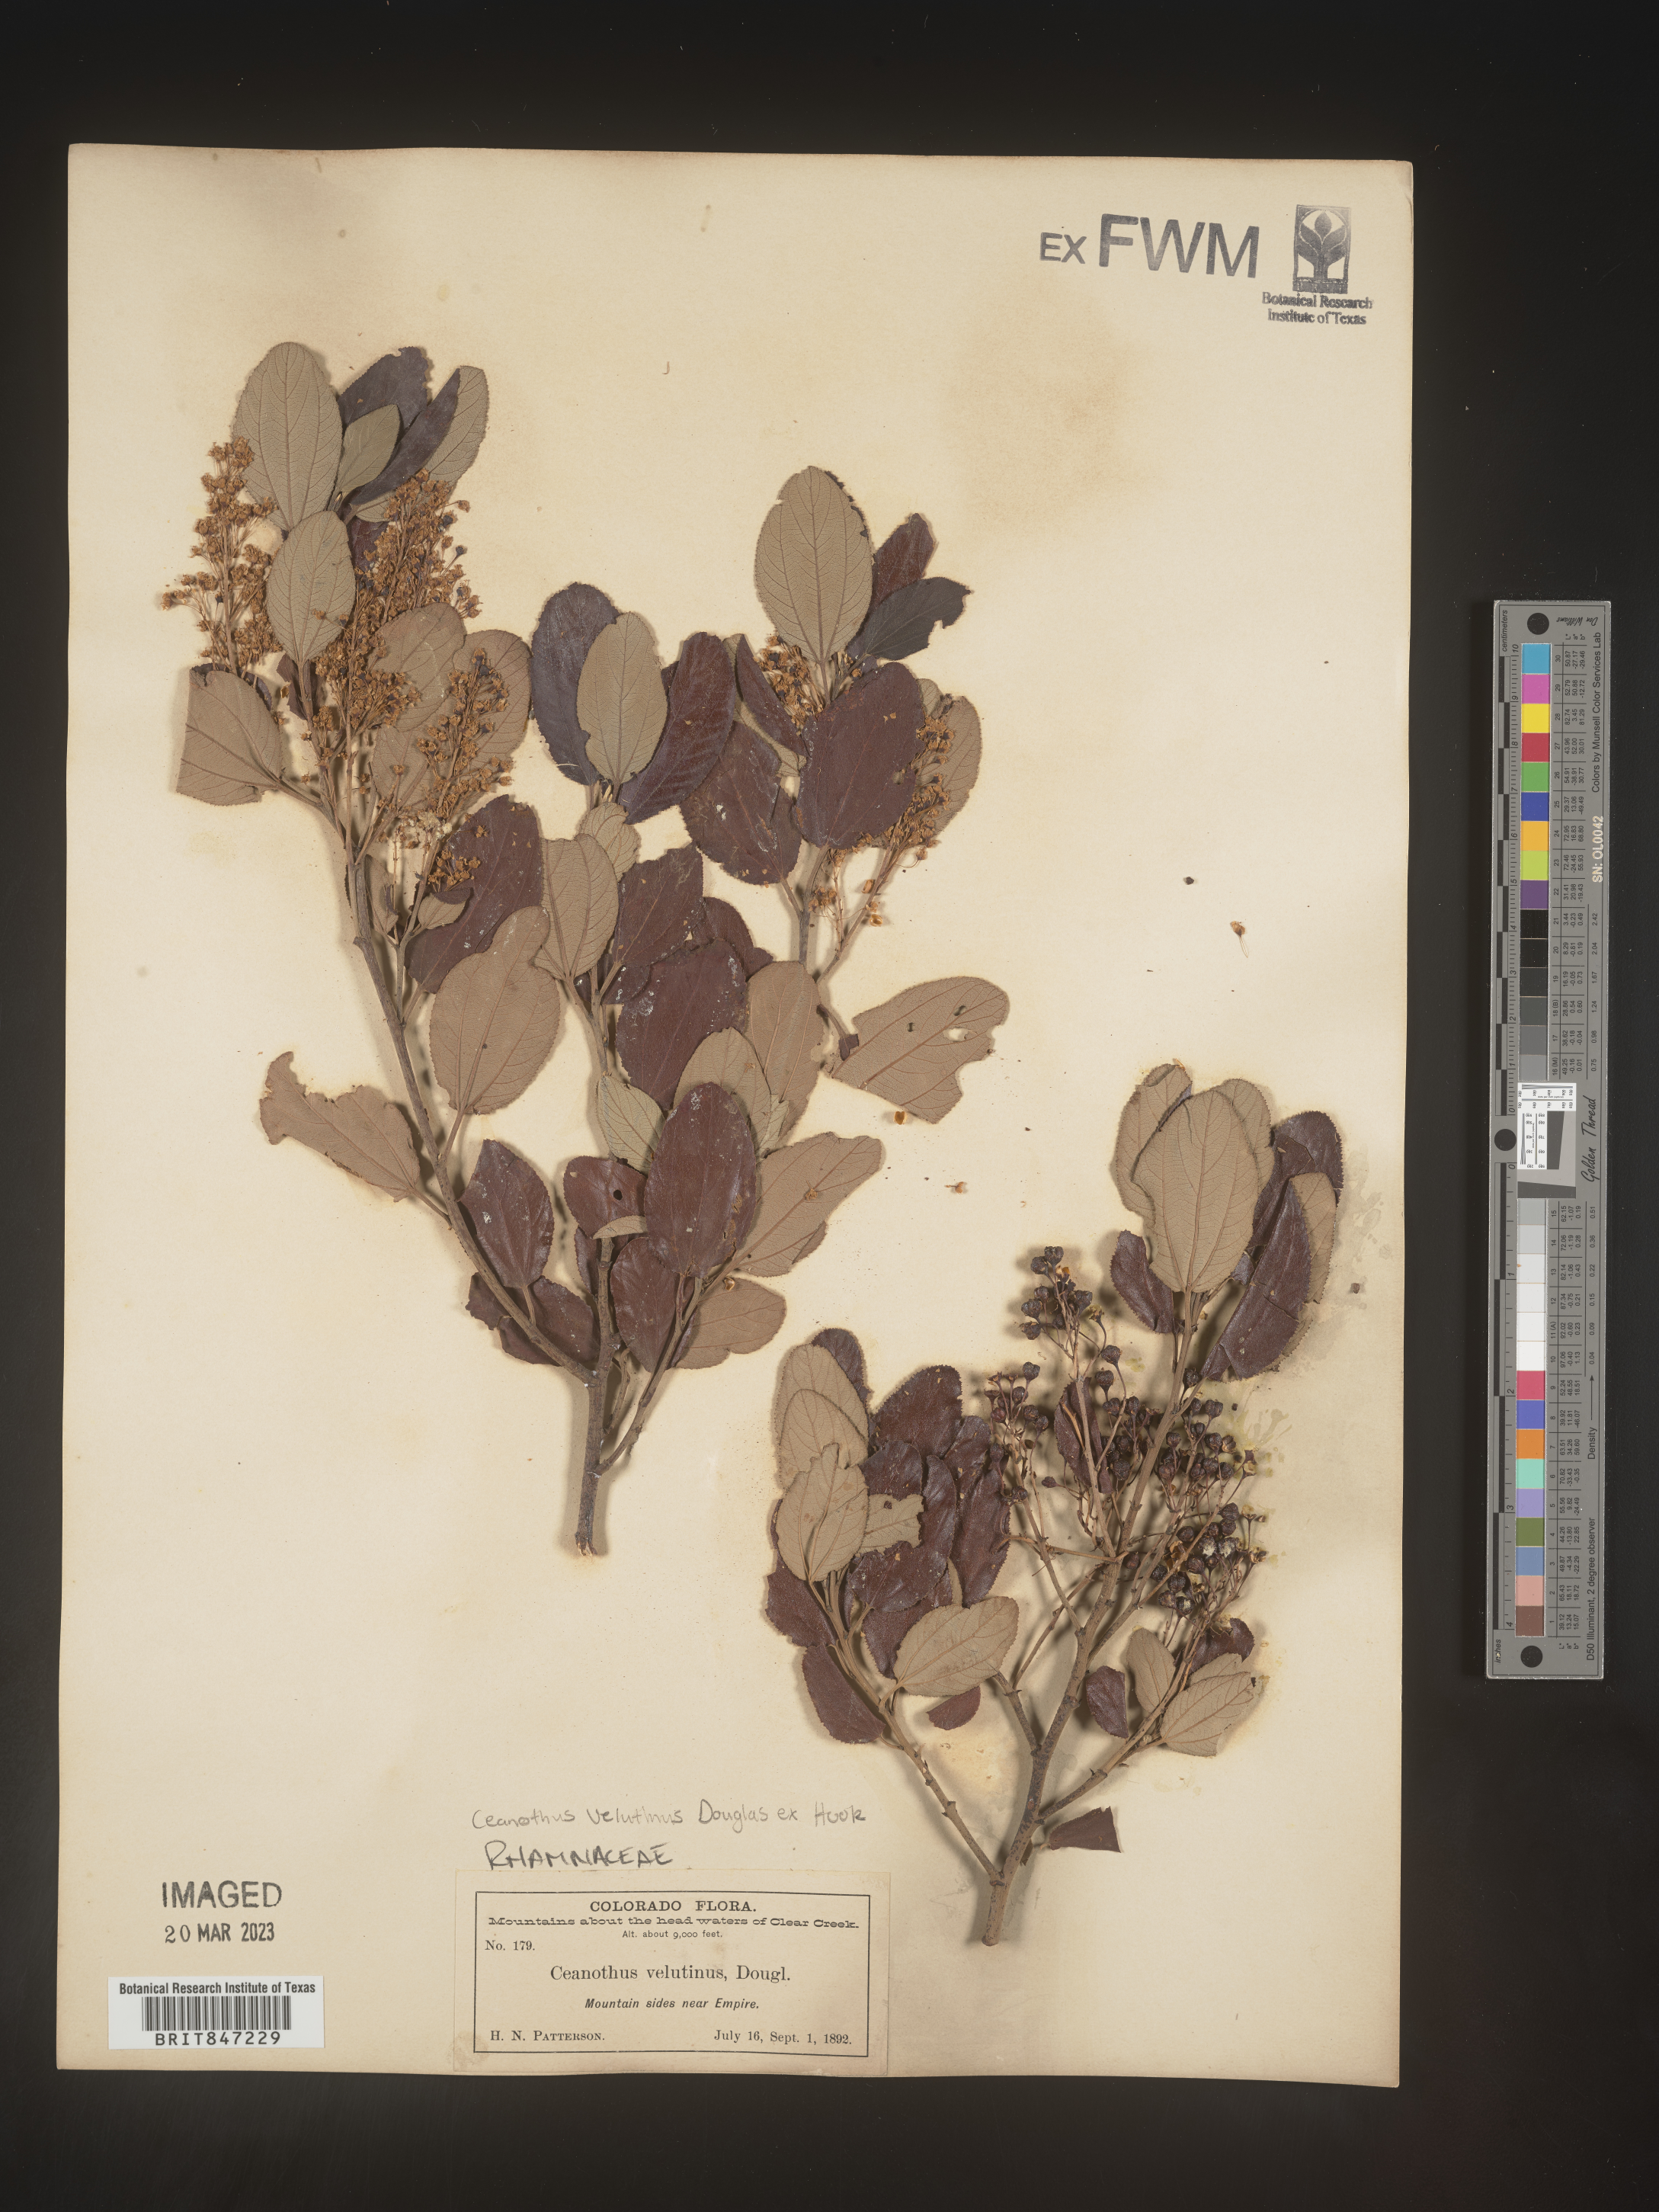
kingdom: Plantae
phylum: Tracheophyta
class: Magnoliopsida
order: Rosales
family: Rhamnaceae
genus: Ceanothus
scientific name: Ceanothus velutinus
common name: Snowbrush
